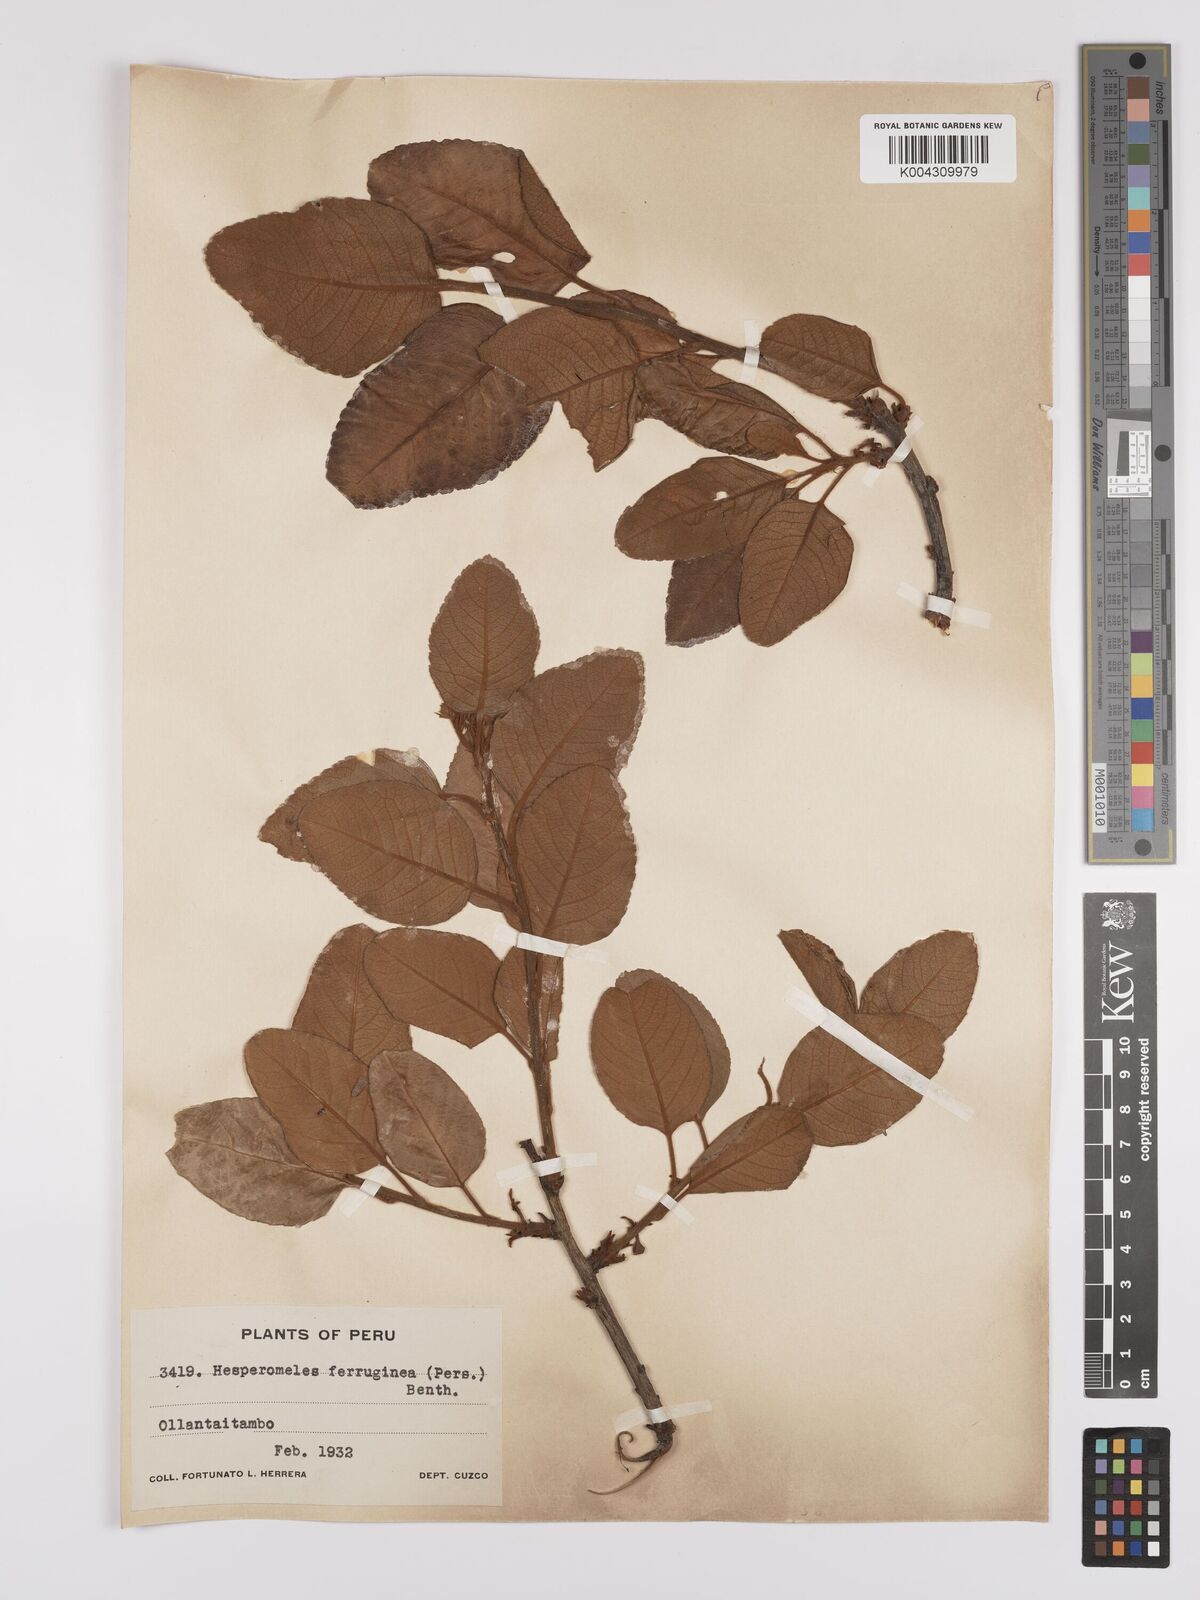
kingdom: Plantae
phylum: Tracheophyta
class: Magnoliopsida
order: Rosales
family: Rosaceae
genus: Hesperomeles
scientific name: Hesperomeles ferruginea
